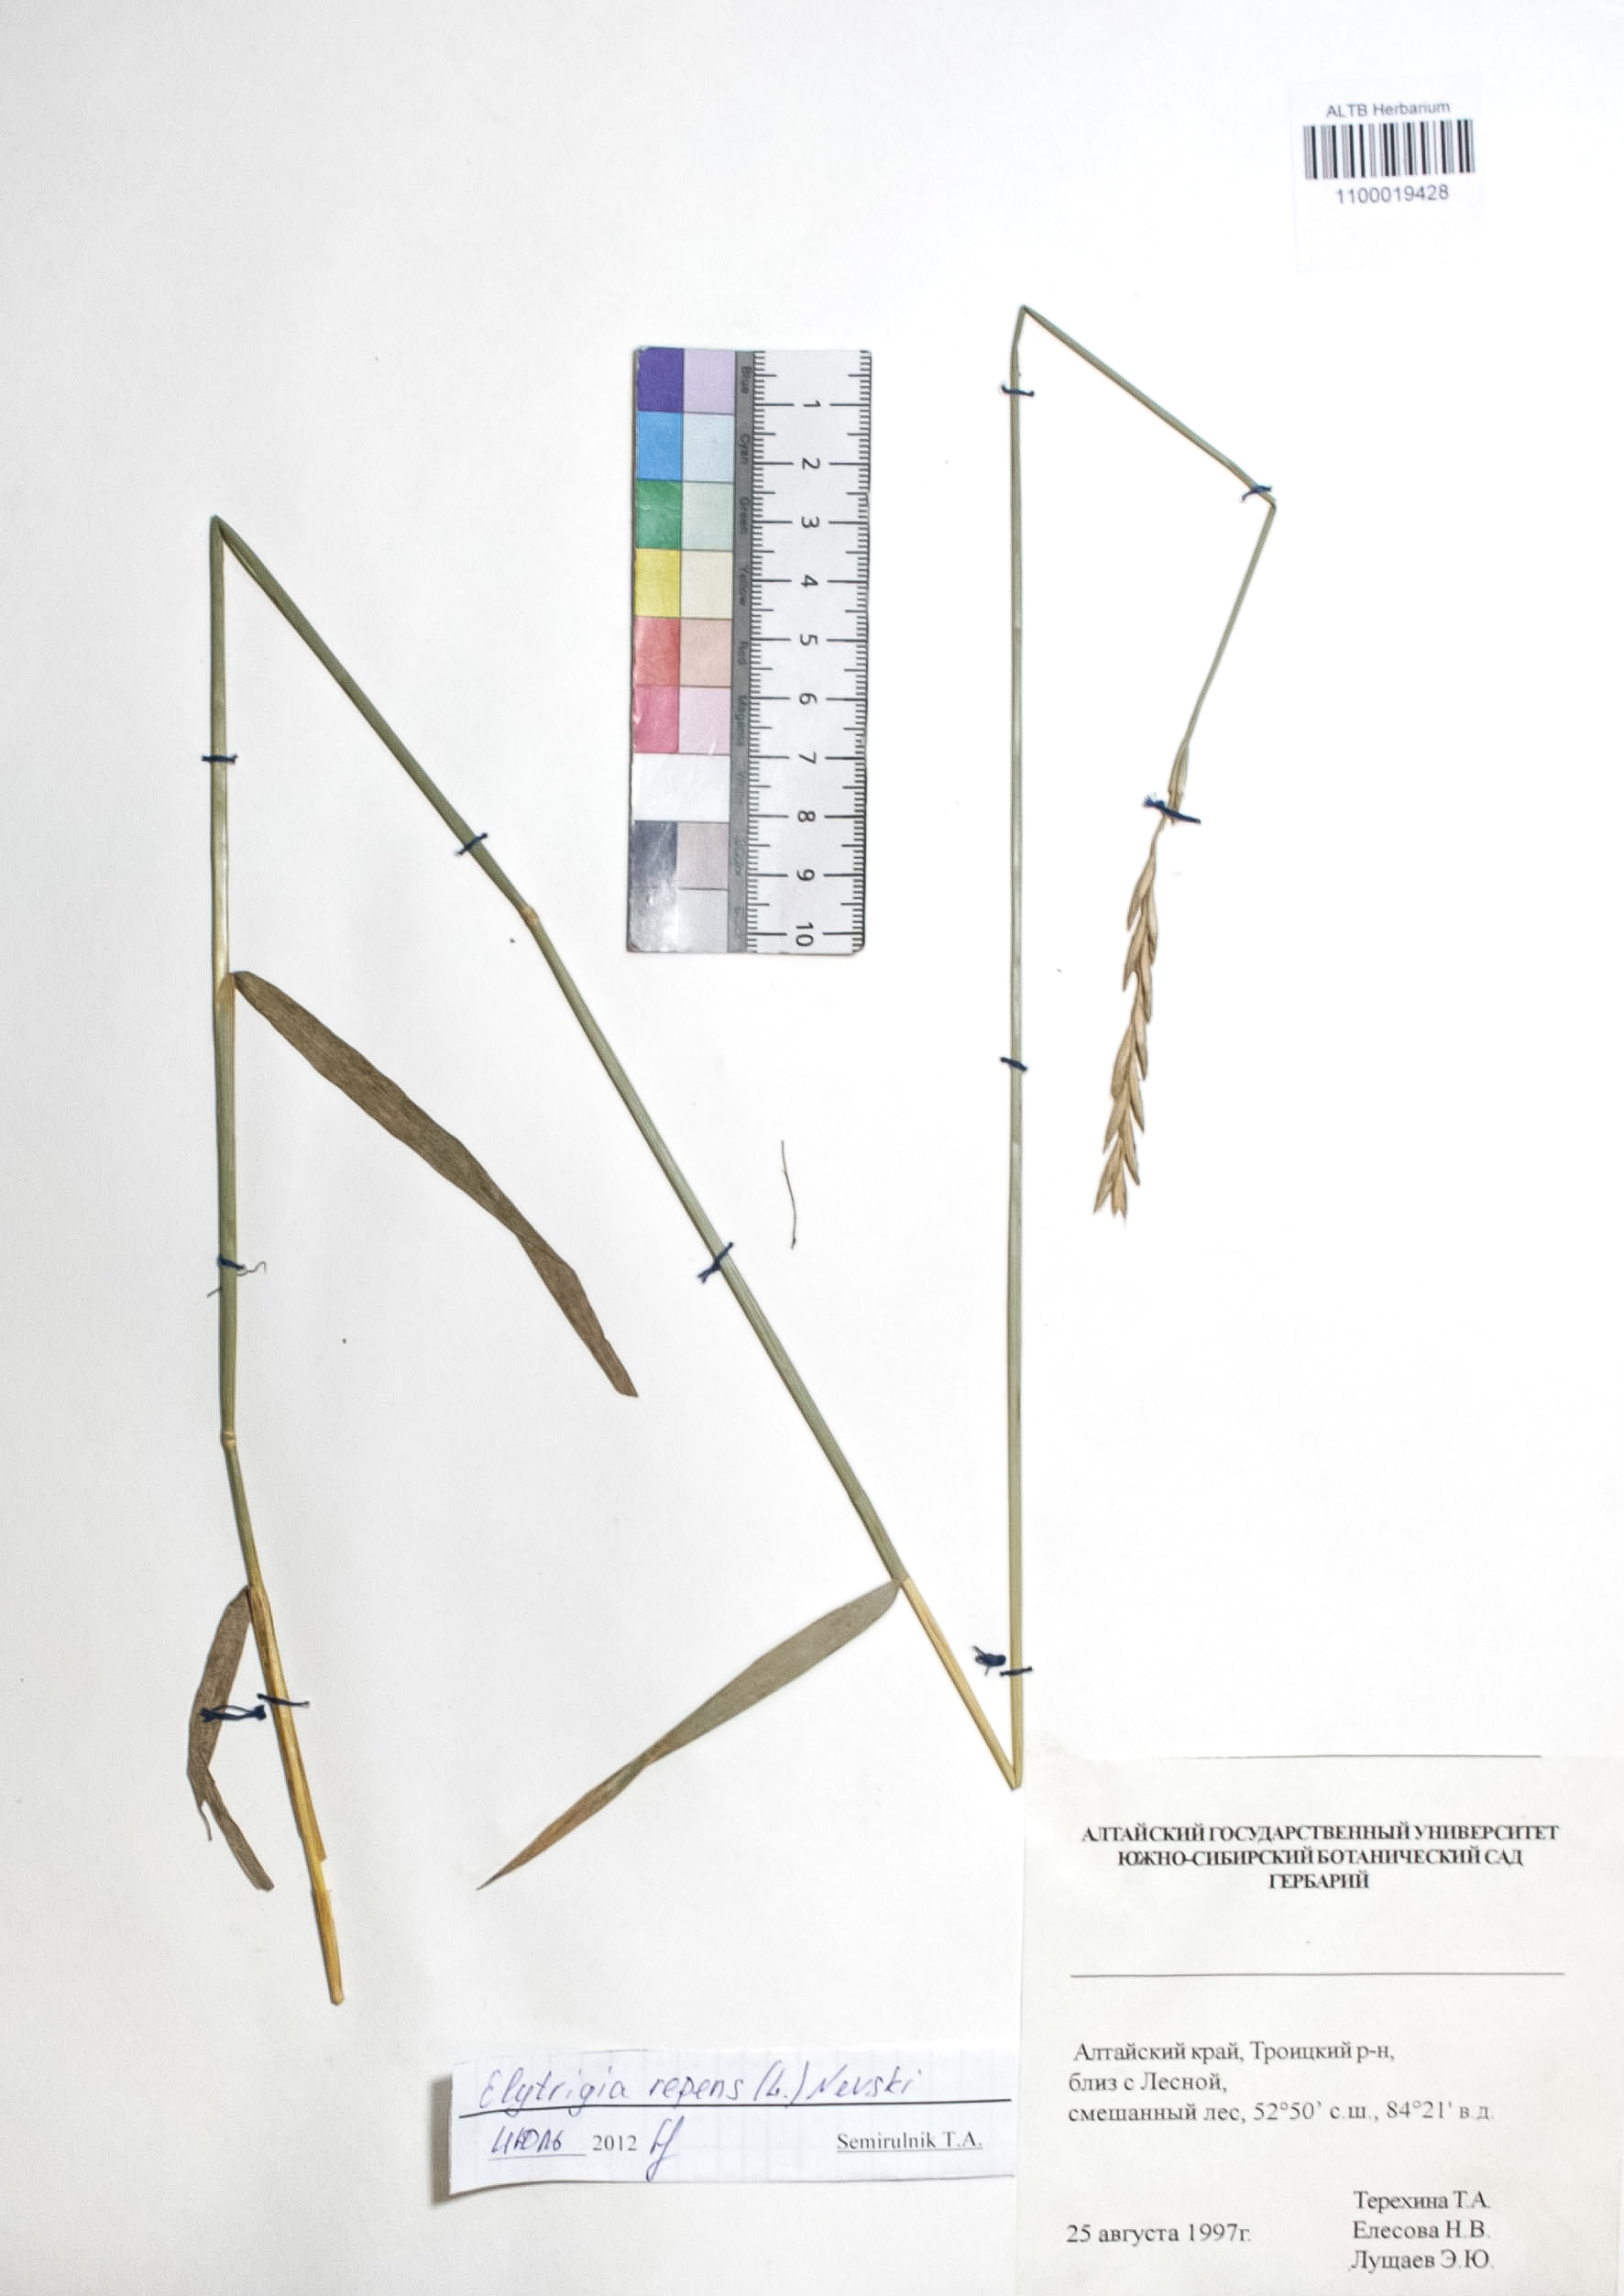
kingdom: Plantae
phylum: Tracheophyta
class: Liliopsida
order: Poales
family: Poaceae
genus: Elymus
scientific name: Elymus repens
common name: Quackgrass
